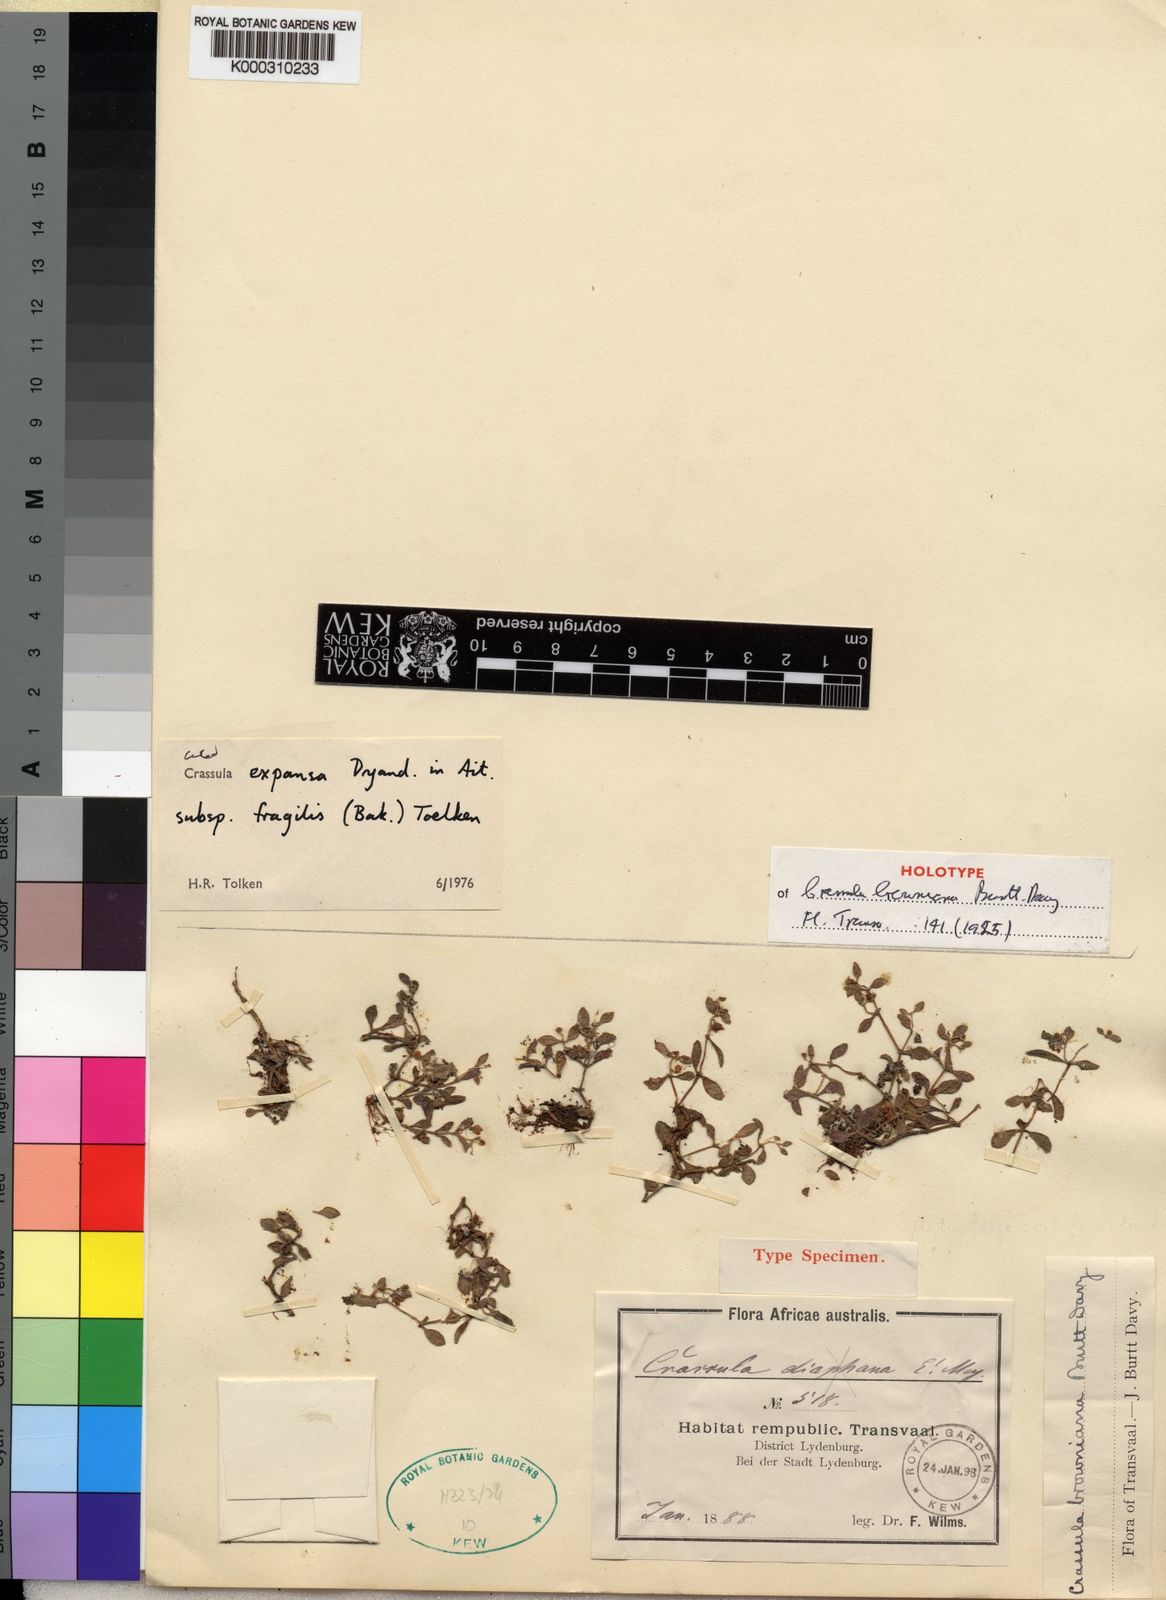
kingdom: Plantae
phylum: Tracheophyta
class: Magnoliopsida
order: Saxifragales
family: Crassulaceae
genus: Crassula
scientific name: Crassula expansa
